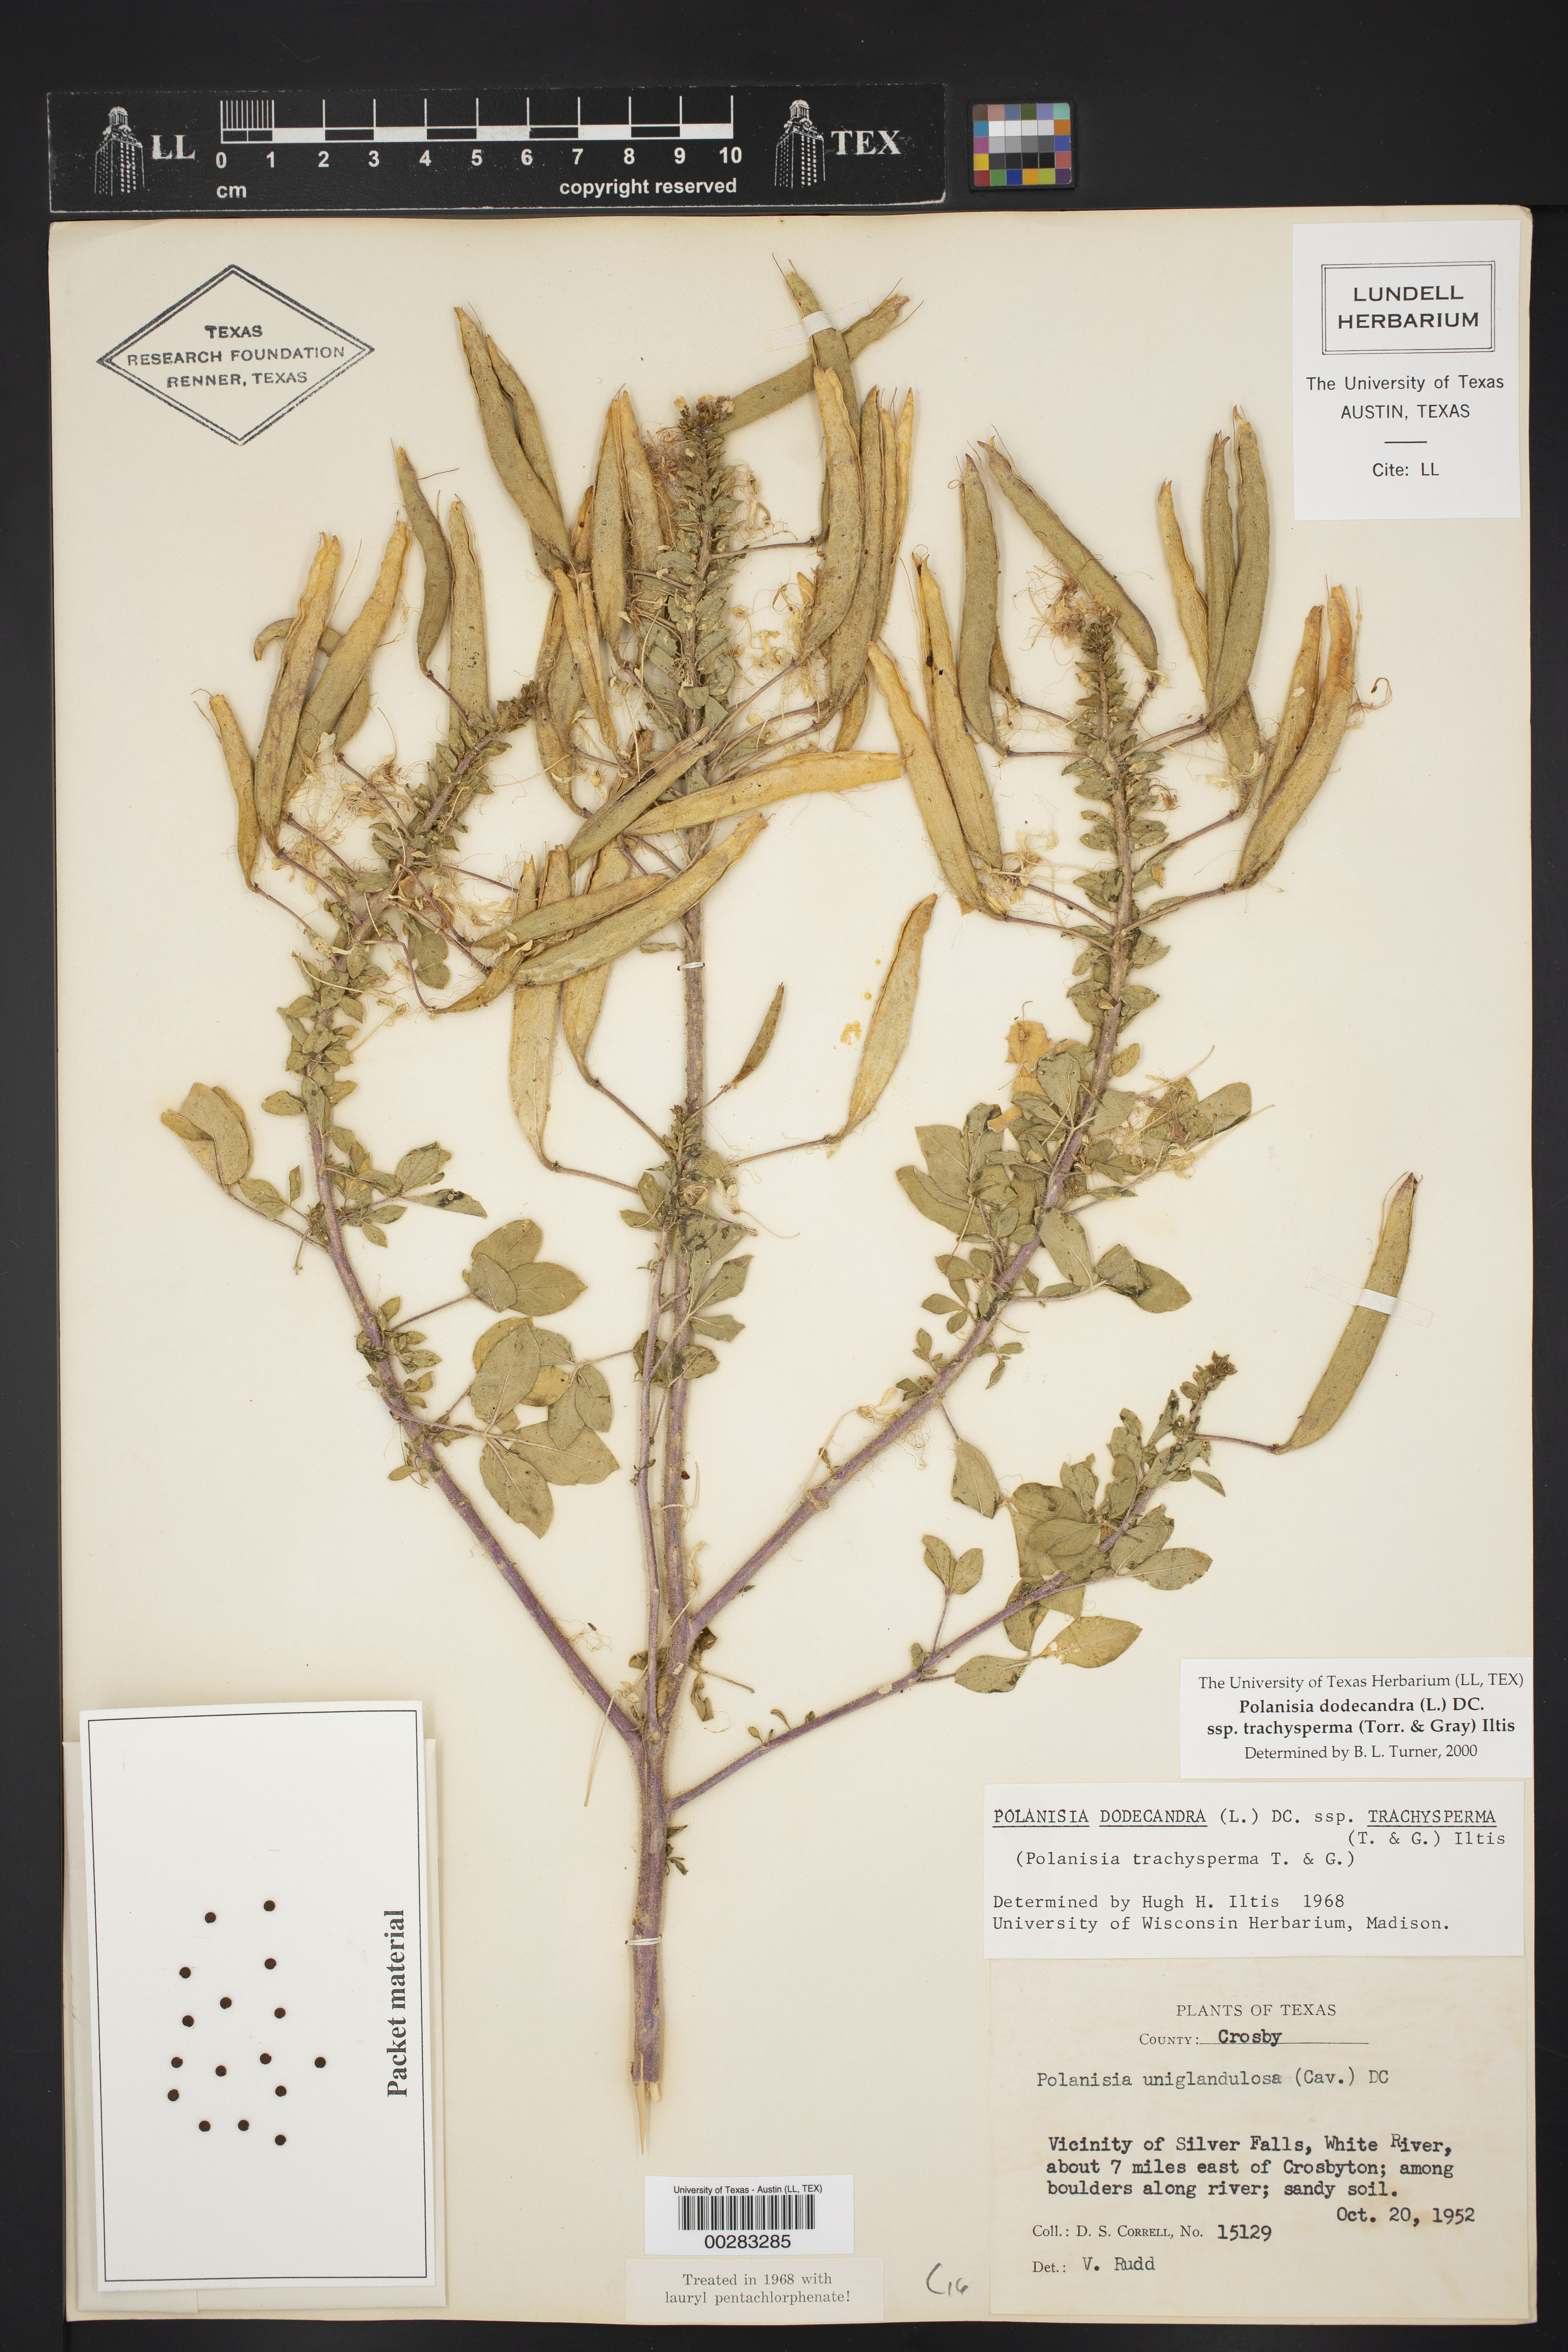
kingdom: Plantae
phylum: Tracheophyta
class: Magnoliopsida
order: Brassicales
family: Cleomaceae
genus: Polanisia
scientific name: Polanisia trachysperma
